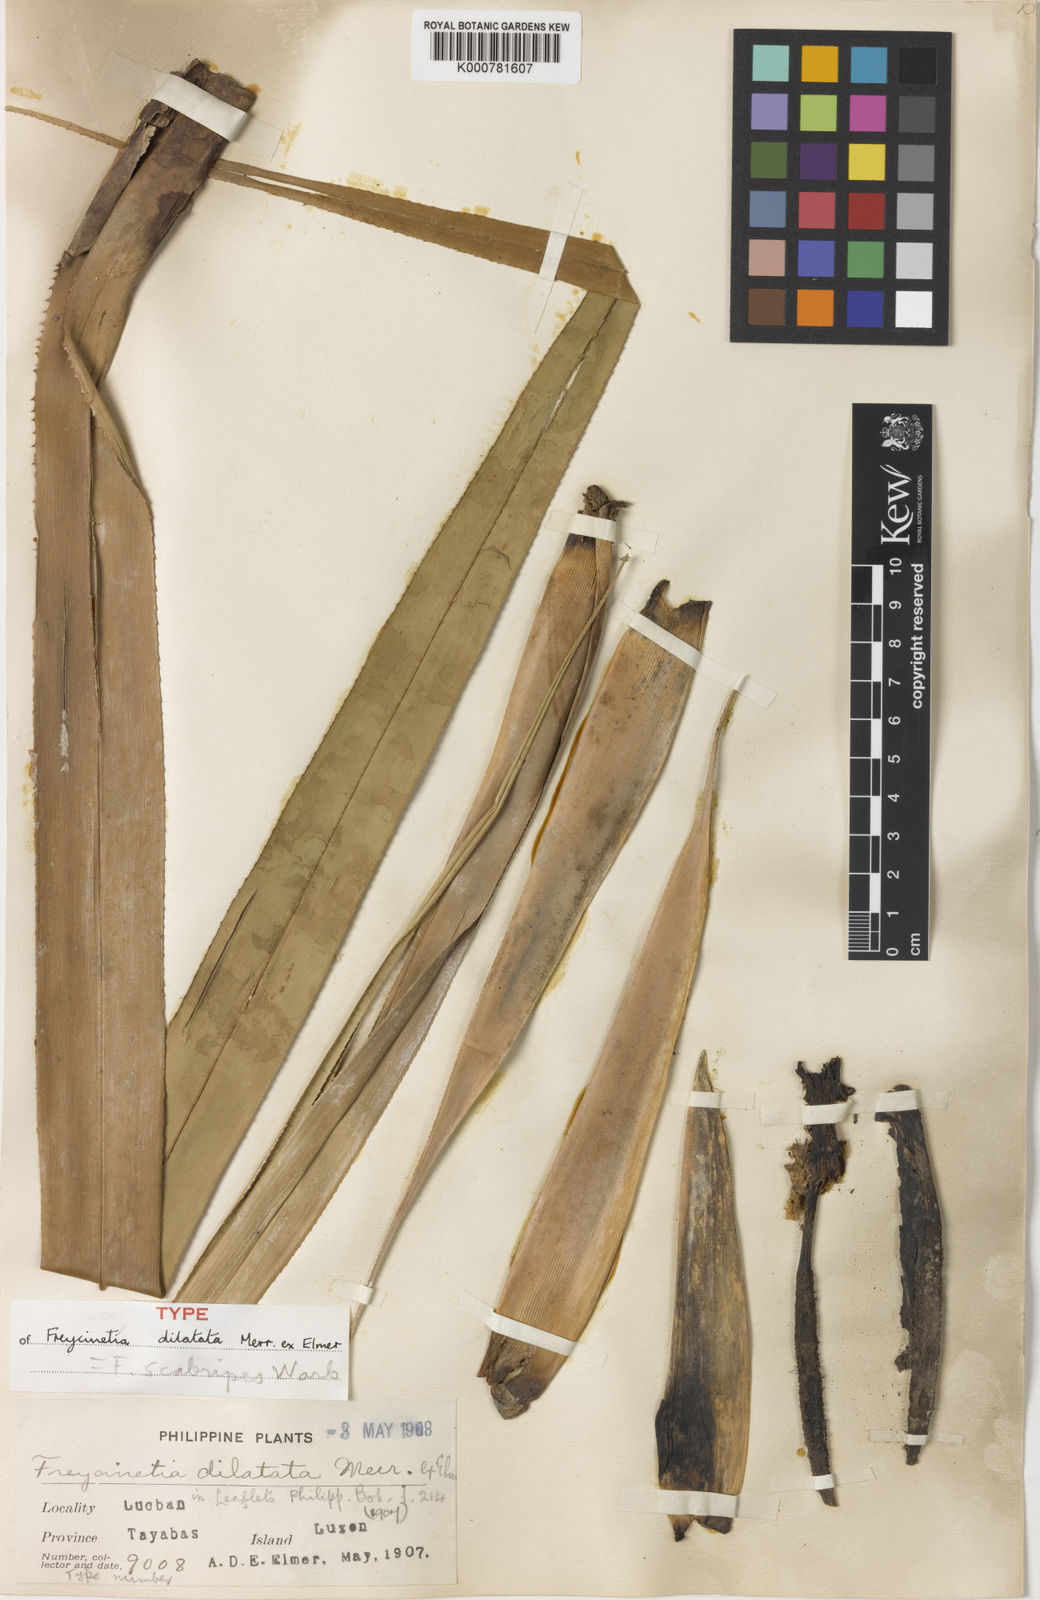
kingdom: Plantae
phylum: Tracheophyta
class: Liliopsida
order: Pandanales
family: Pandanaceae
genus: Freycinetia
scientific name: Freycinetia scabripes
